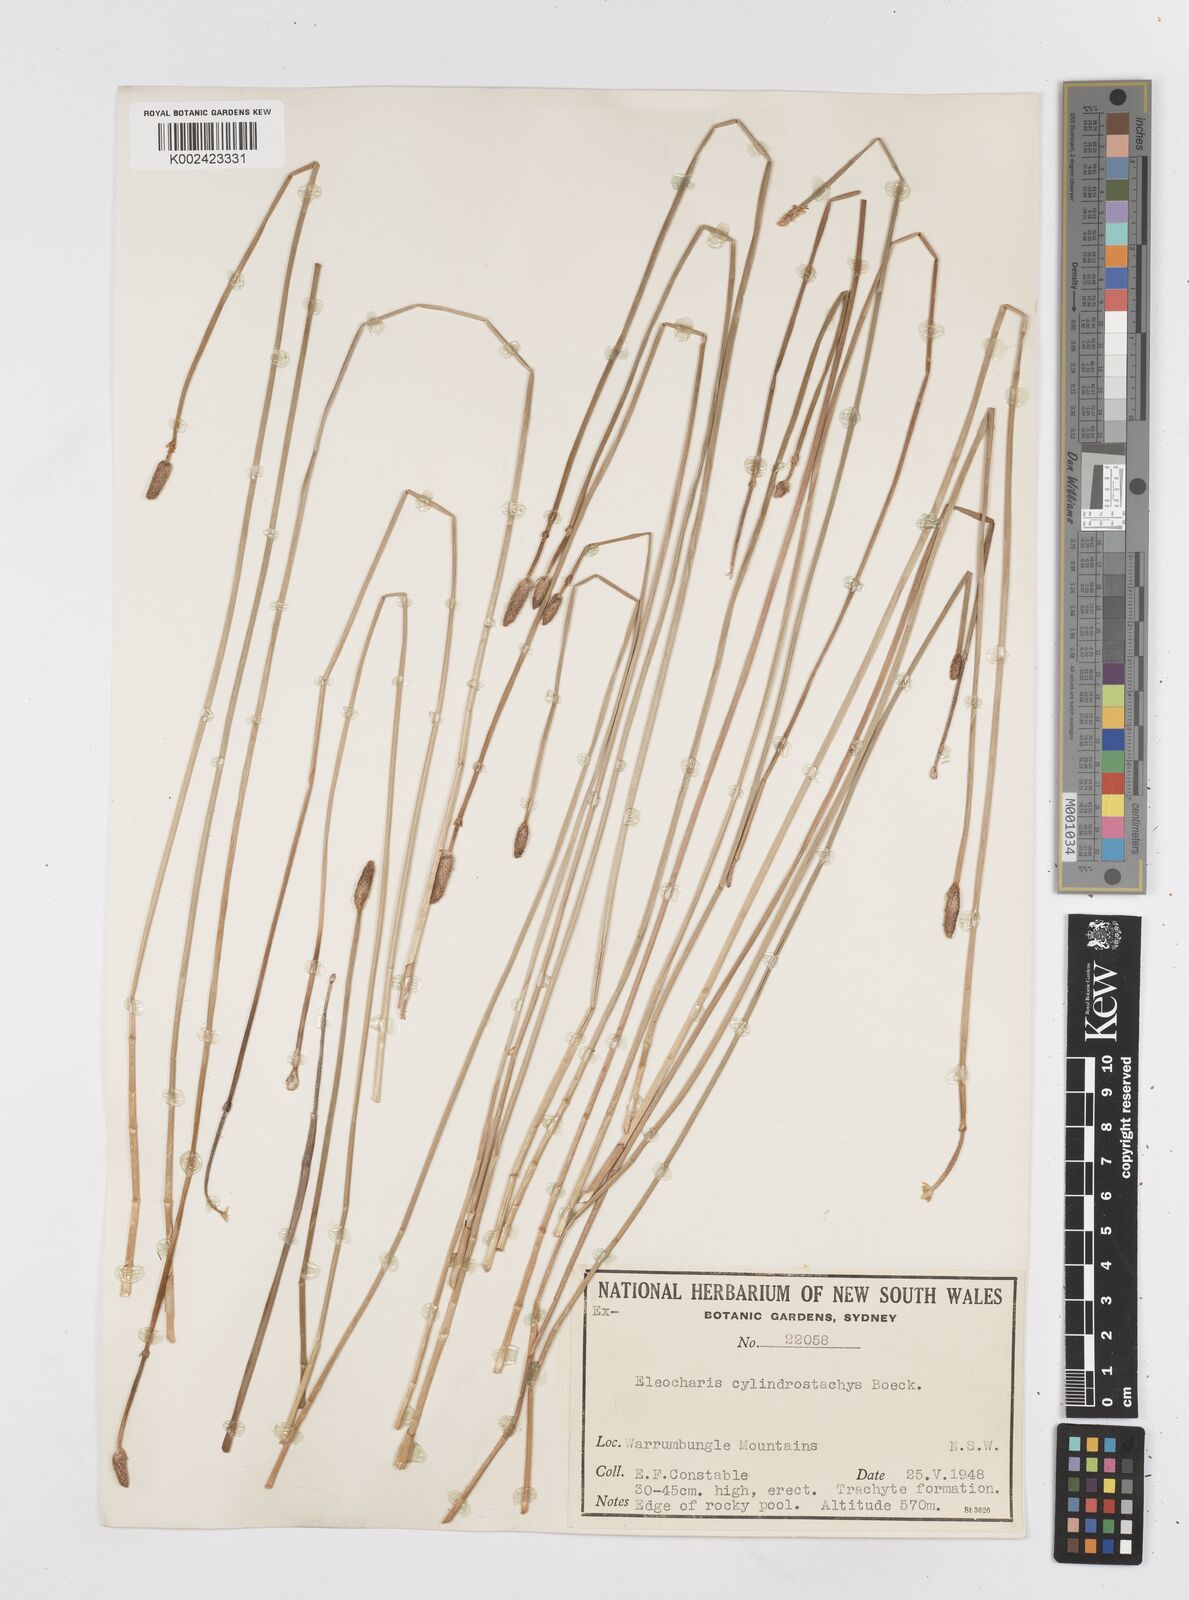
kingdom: Plantae
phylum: Tracheophyta
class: Liliopsida
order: Poales
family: Cyperaceae
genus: Eleocharis
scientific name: Eleocharis cylindrostachys
